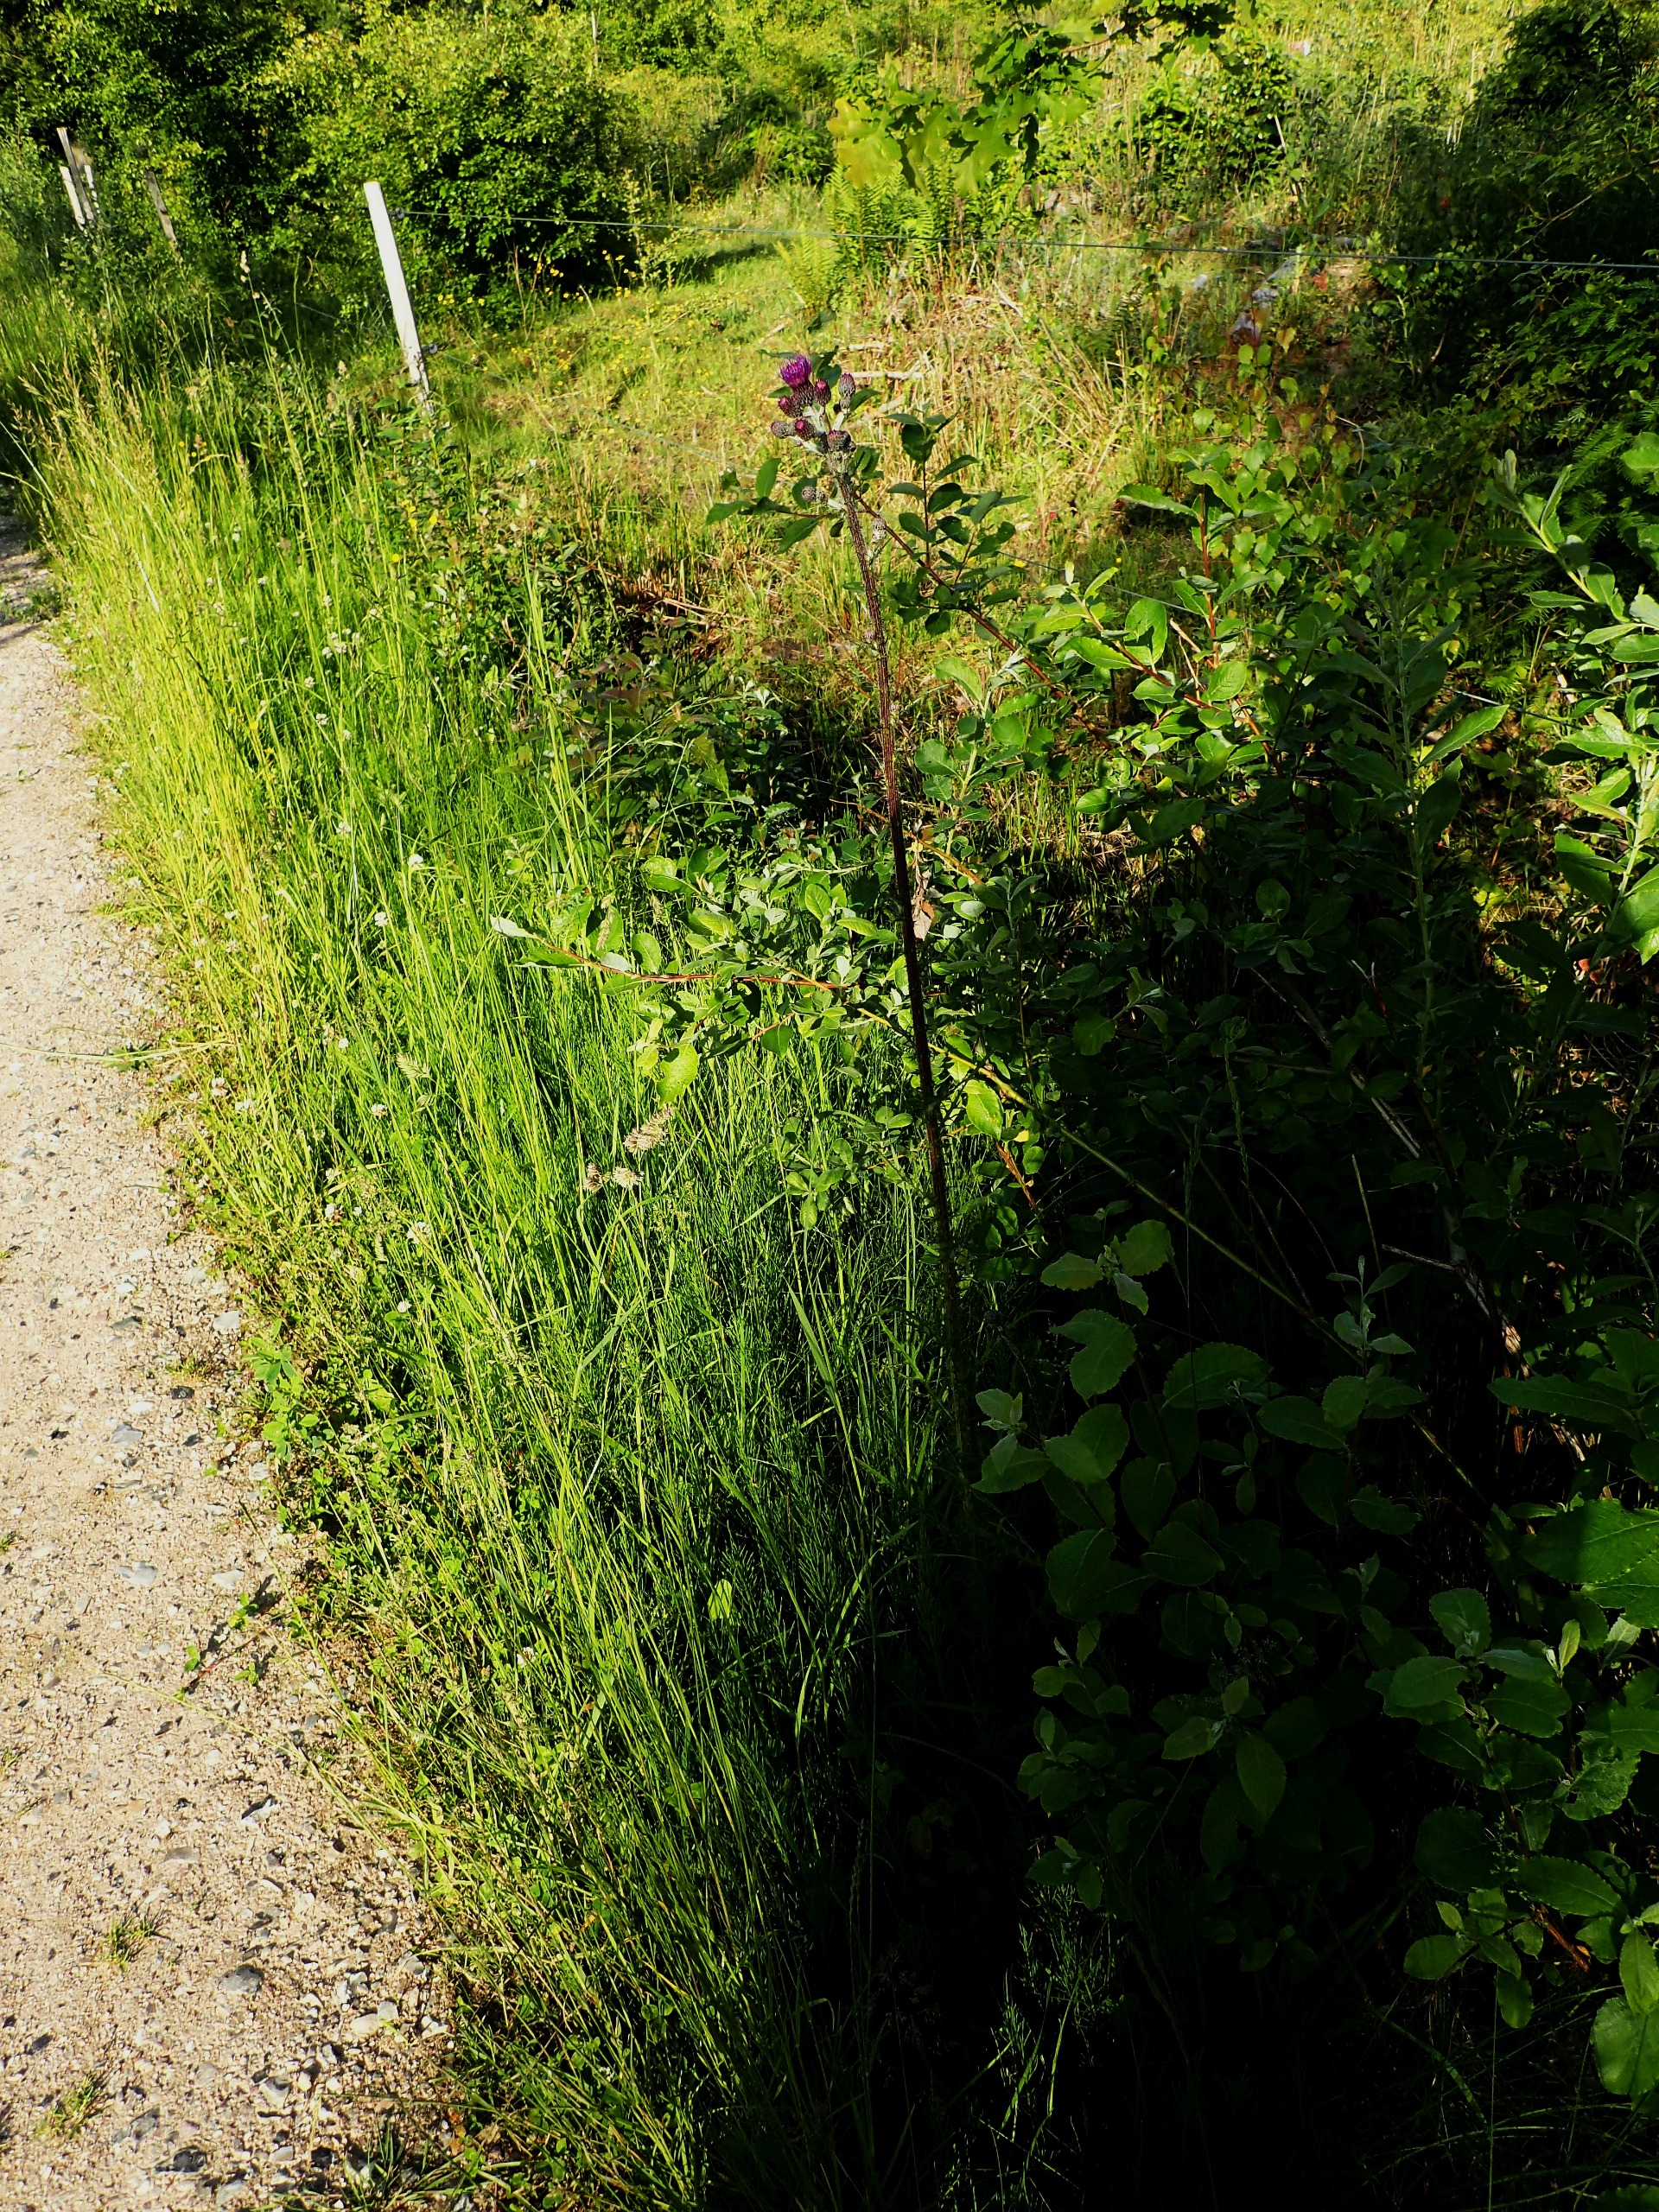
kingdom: Plantae
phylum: Tracheophyta
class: Magnoliopsida
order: Asterales
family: Asteraceae
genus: Cirsium
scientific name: Cirsium palustre
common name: Kær-tidsel
